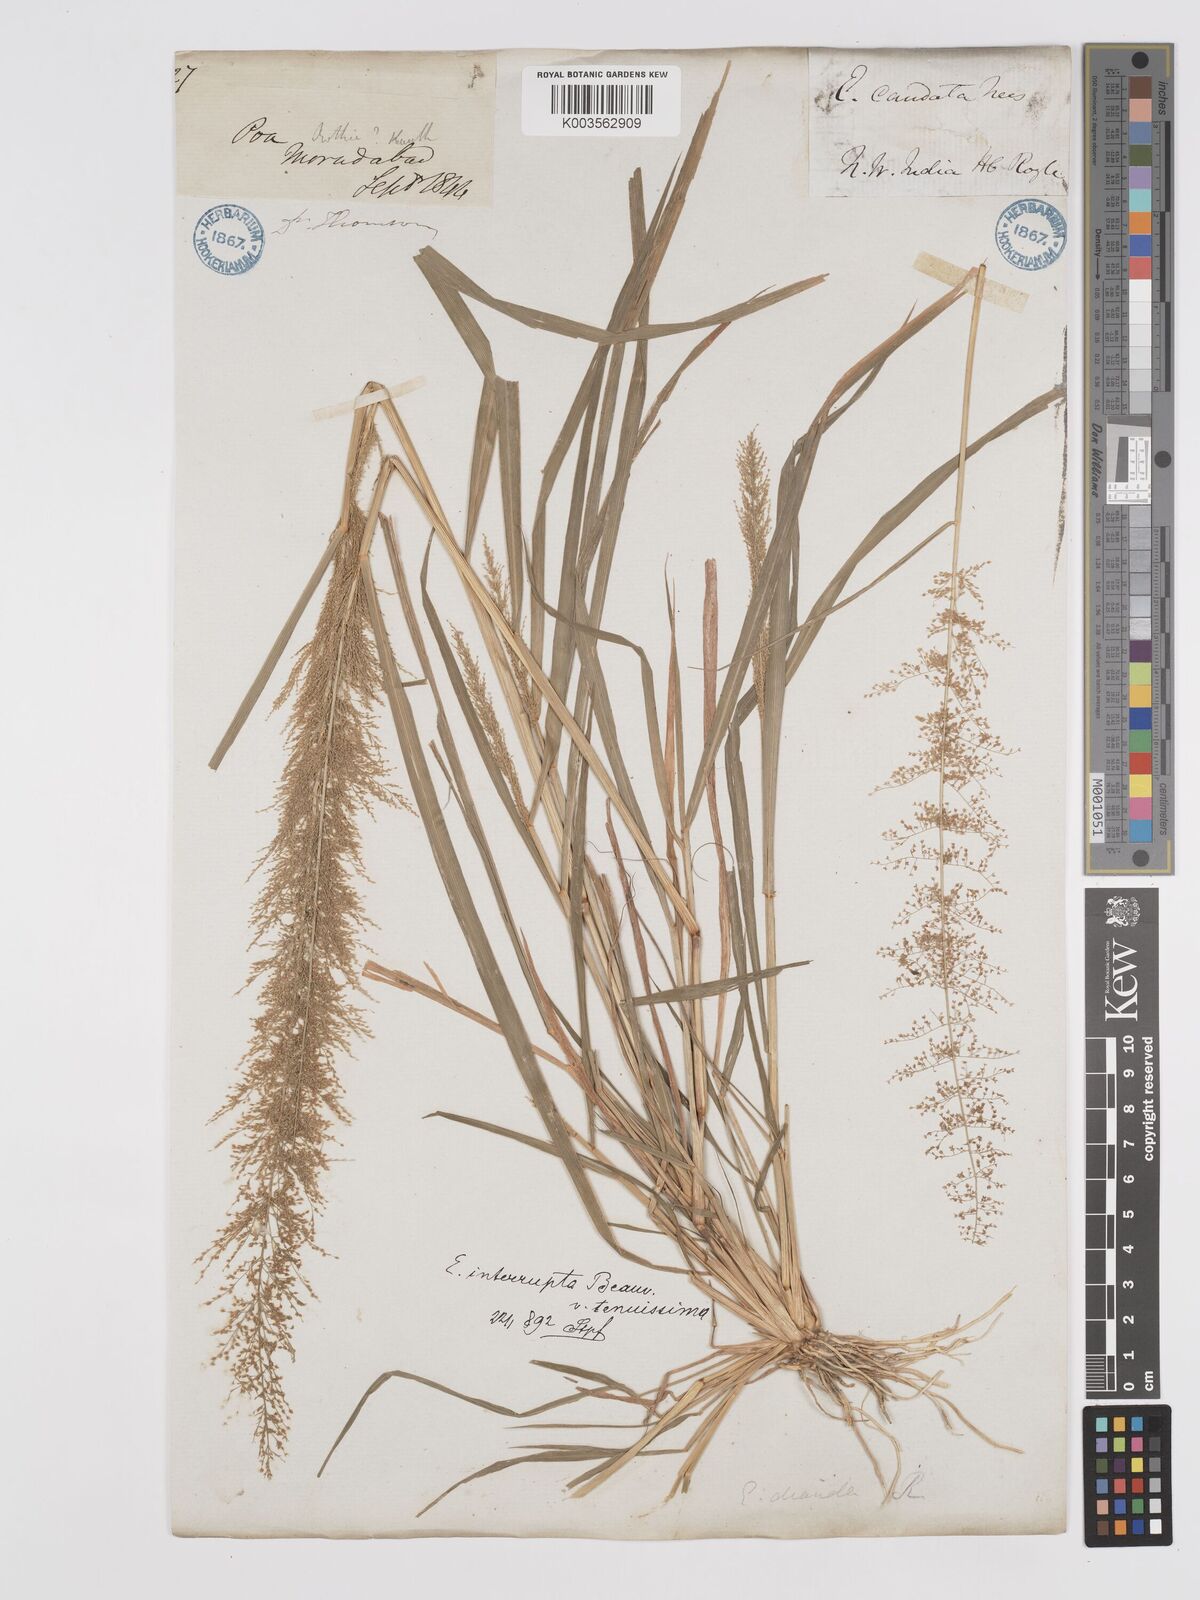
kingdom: Plantae
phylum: Tracheophyta
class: Liliopsida
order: Poales
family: Poaceae
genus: Eragrostis
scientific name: Eragrostis japonica
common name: Pond lovegrass
